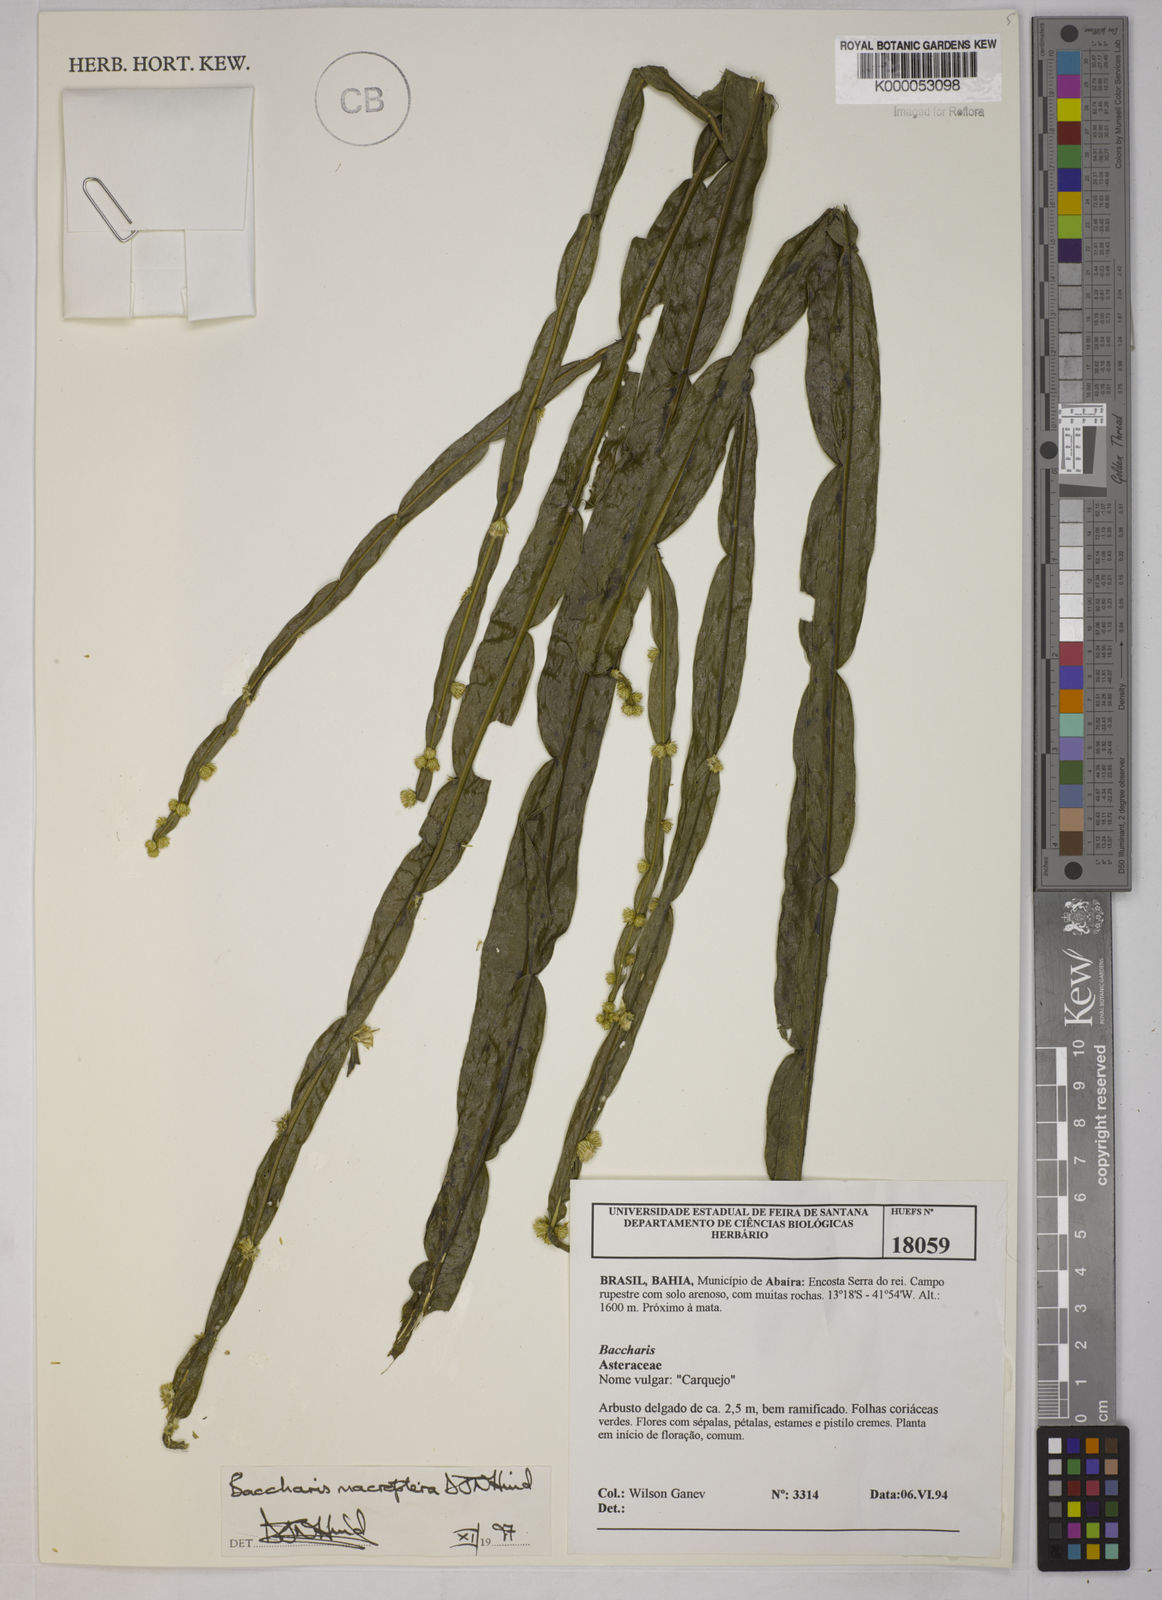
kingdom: Plantae
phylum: Tracheophyta
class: Magnoliopsida
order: Asterales
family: Asteraceae
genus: Baccharis
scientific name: Baccharis sagittalis
